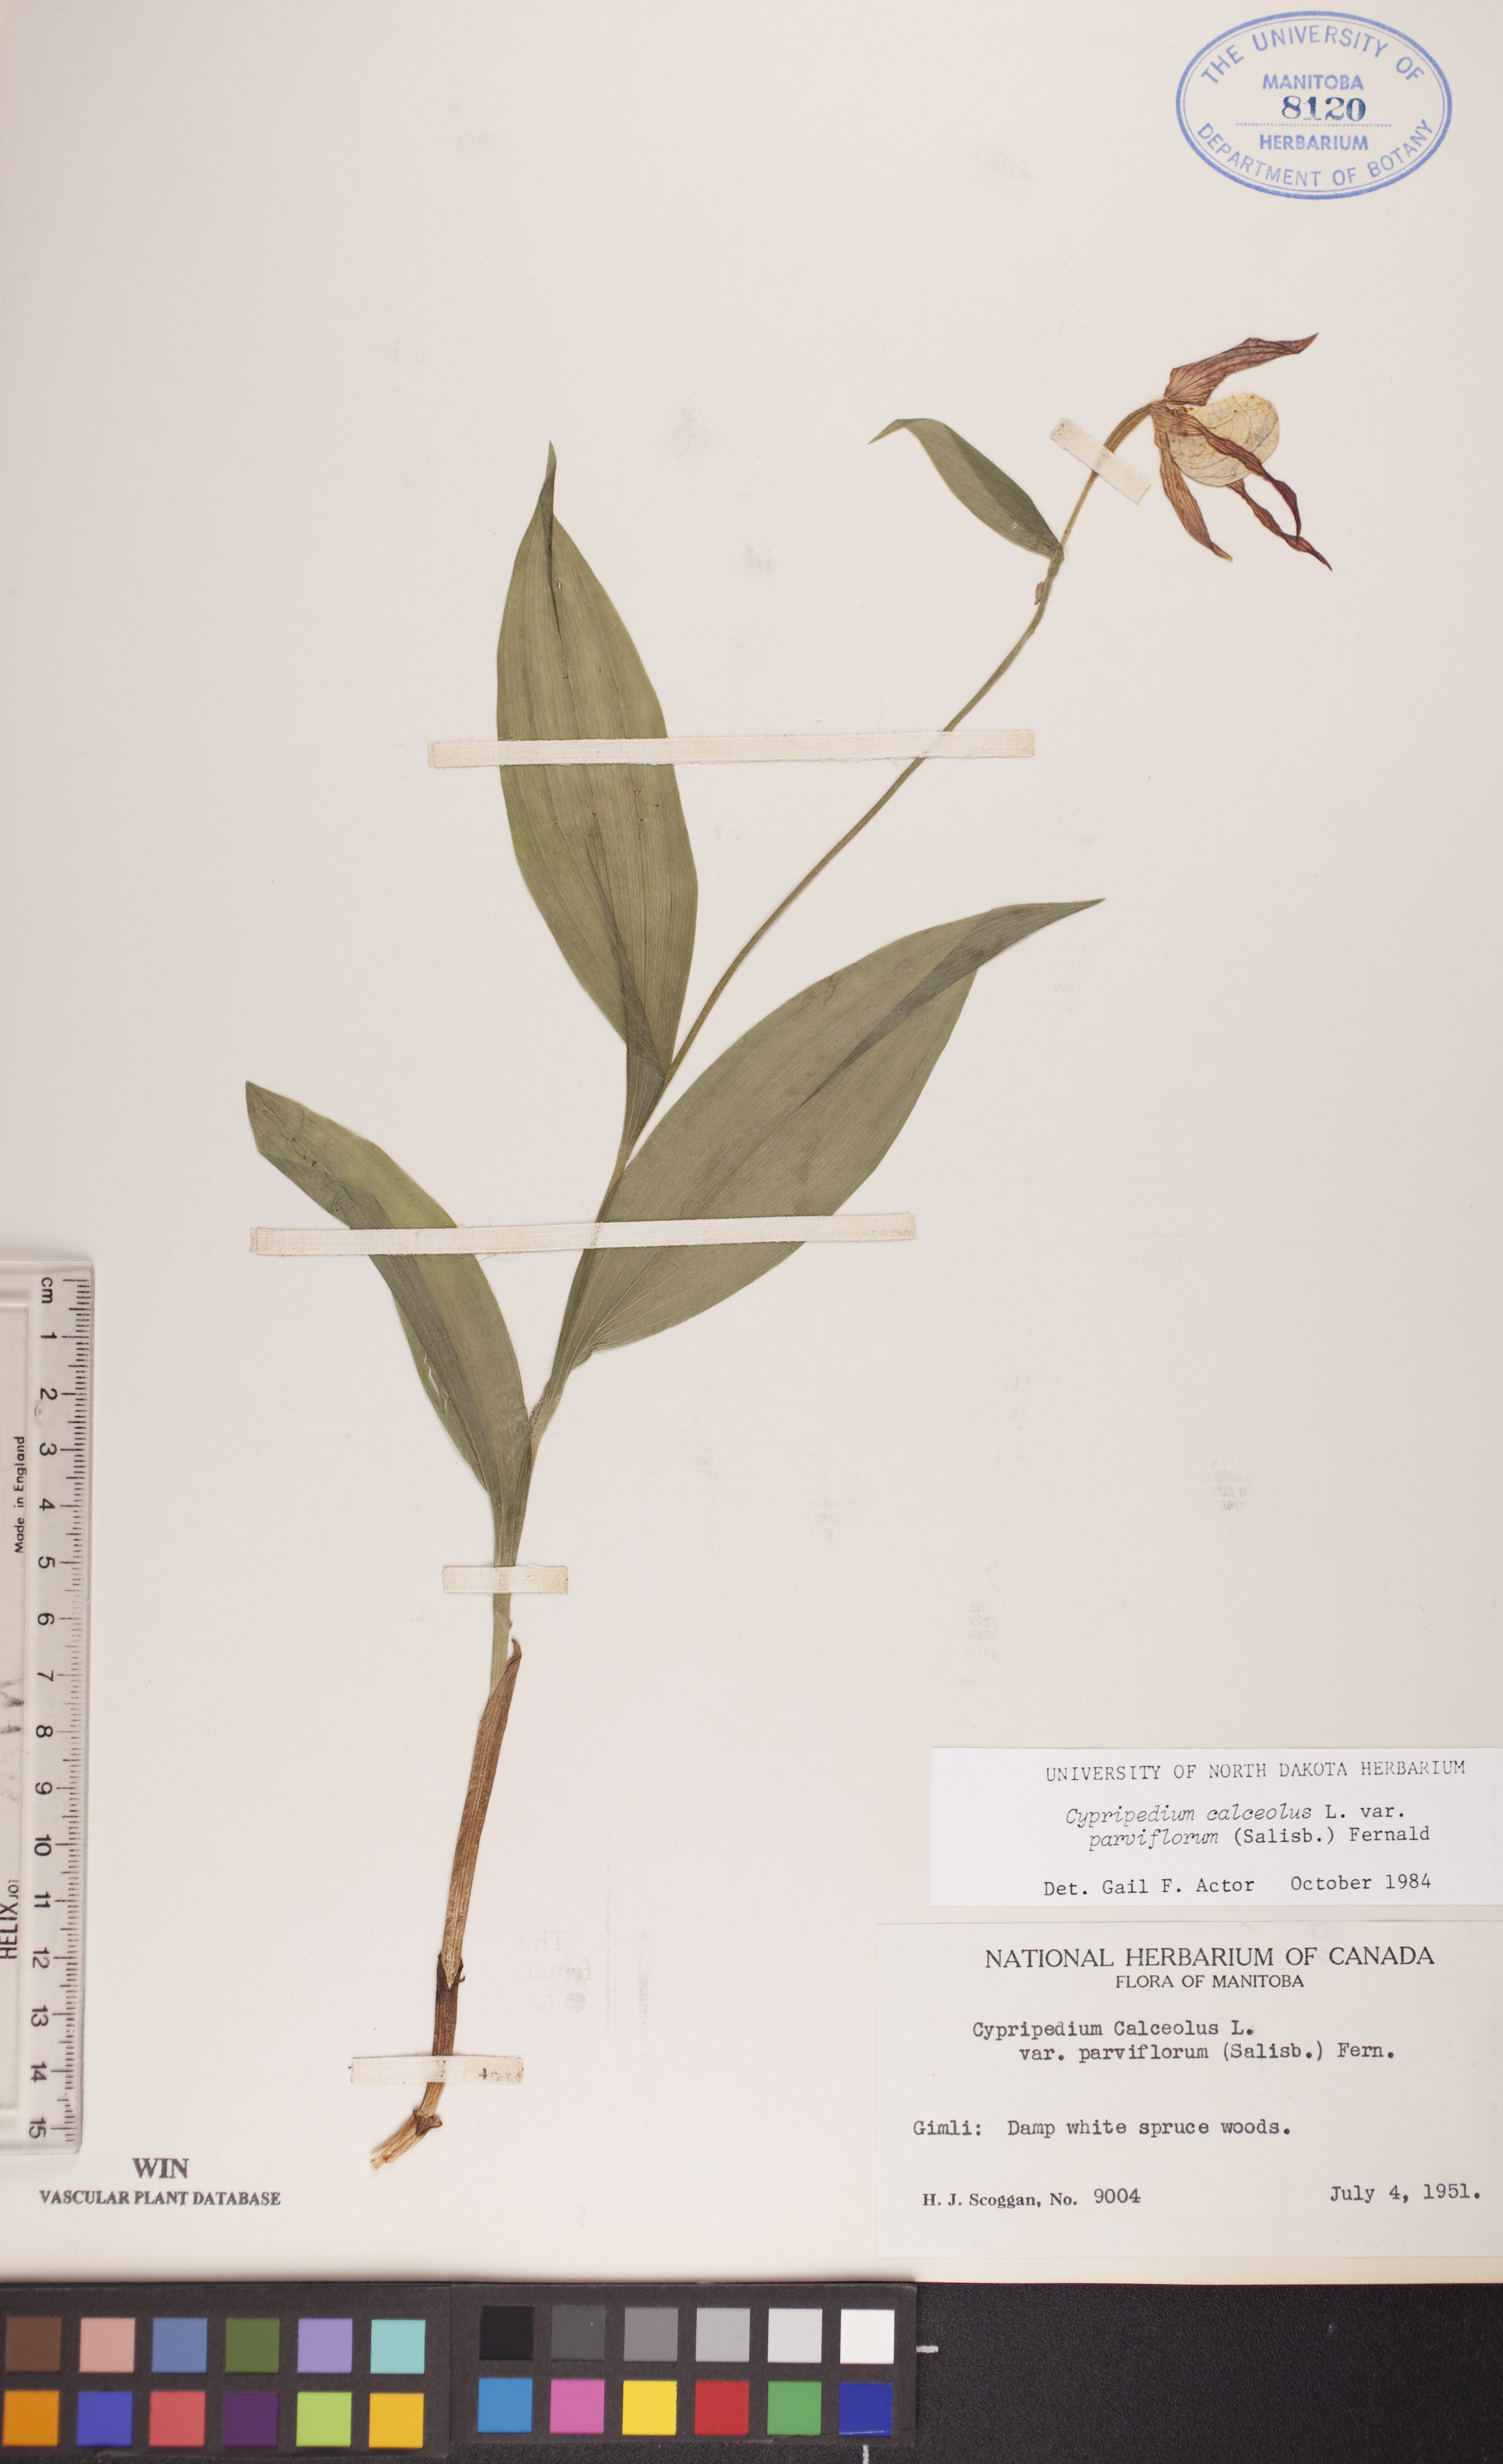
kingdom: Plantae
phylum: Tracheophyta
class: Liliopsida
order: Asparagales
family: Orchidaceae
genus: Cypripedium
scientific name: Cypripedium parviflorum
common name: American yellow lady's-slipper
